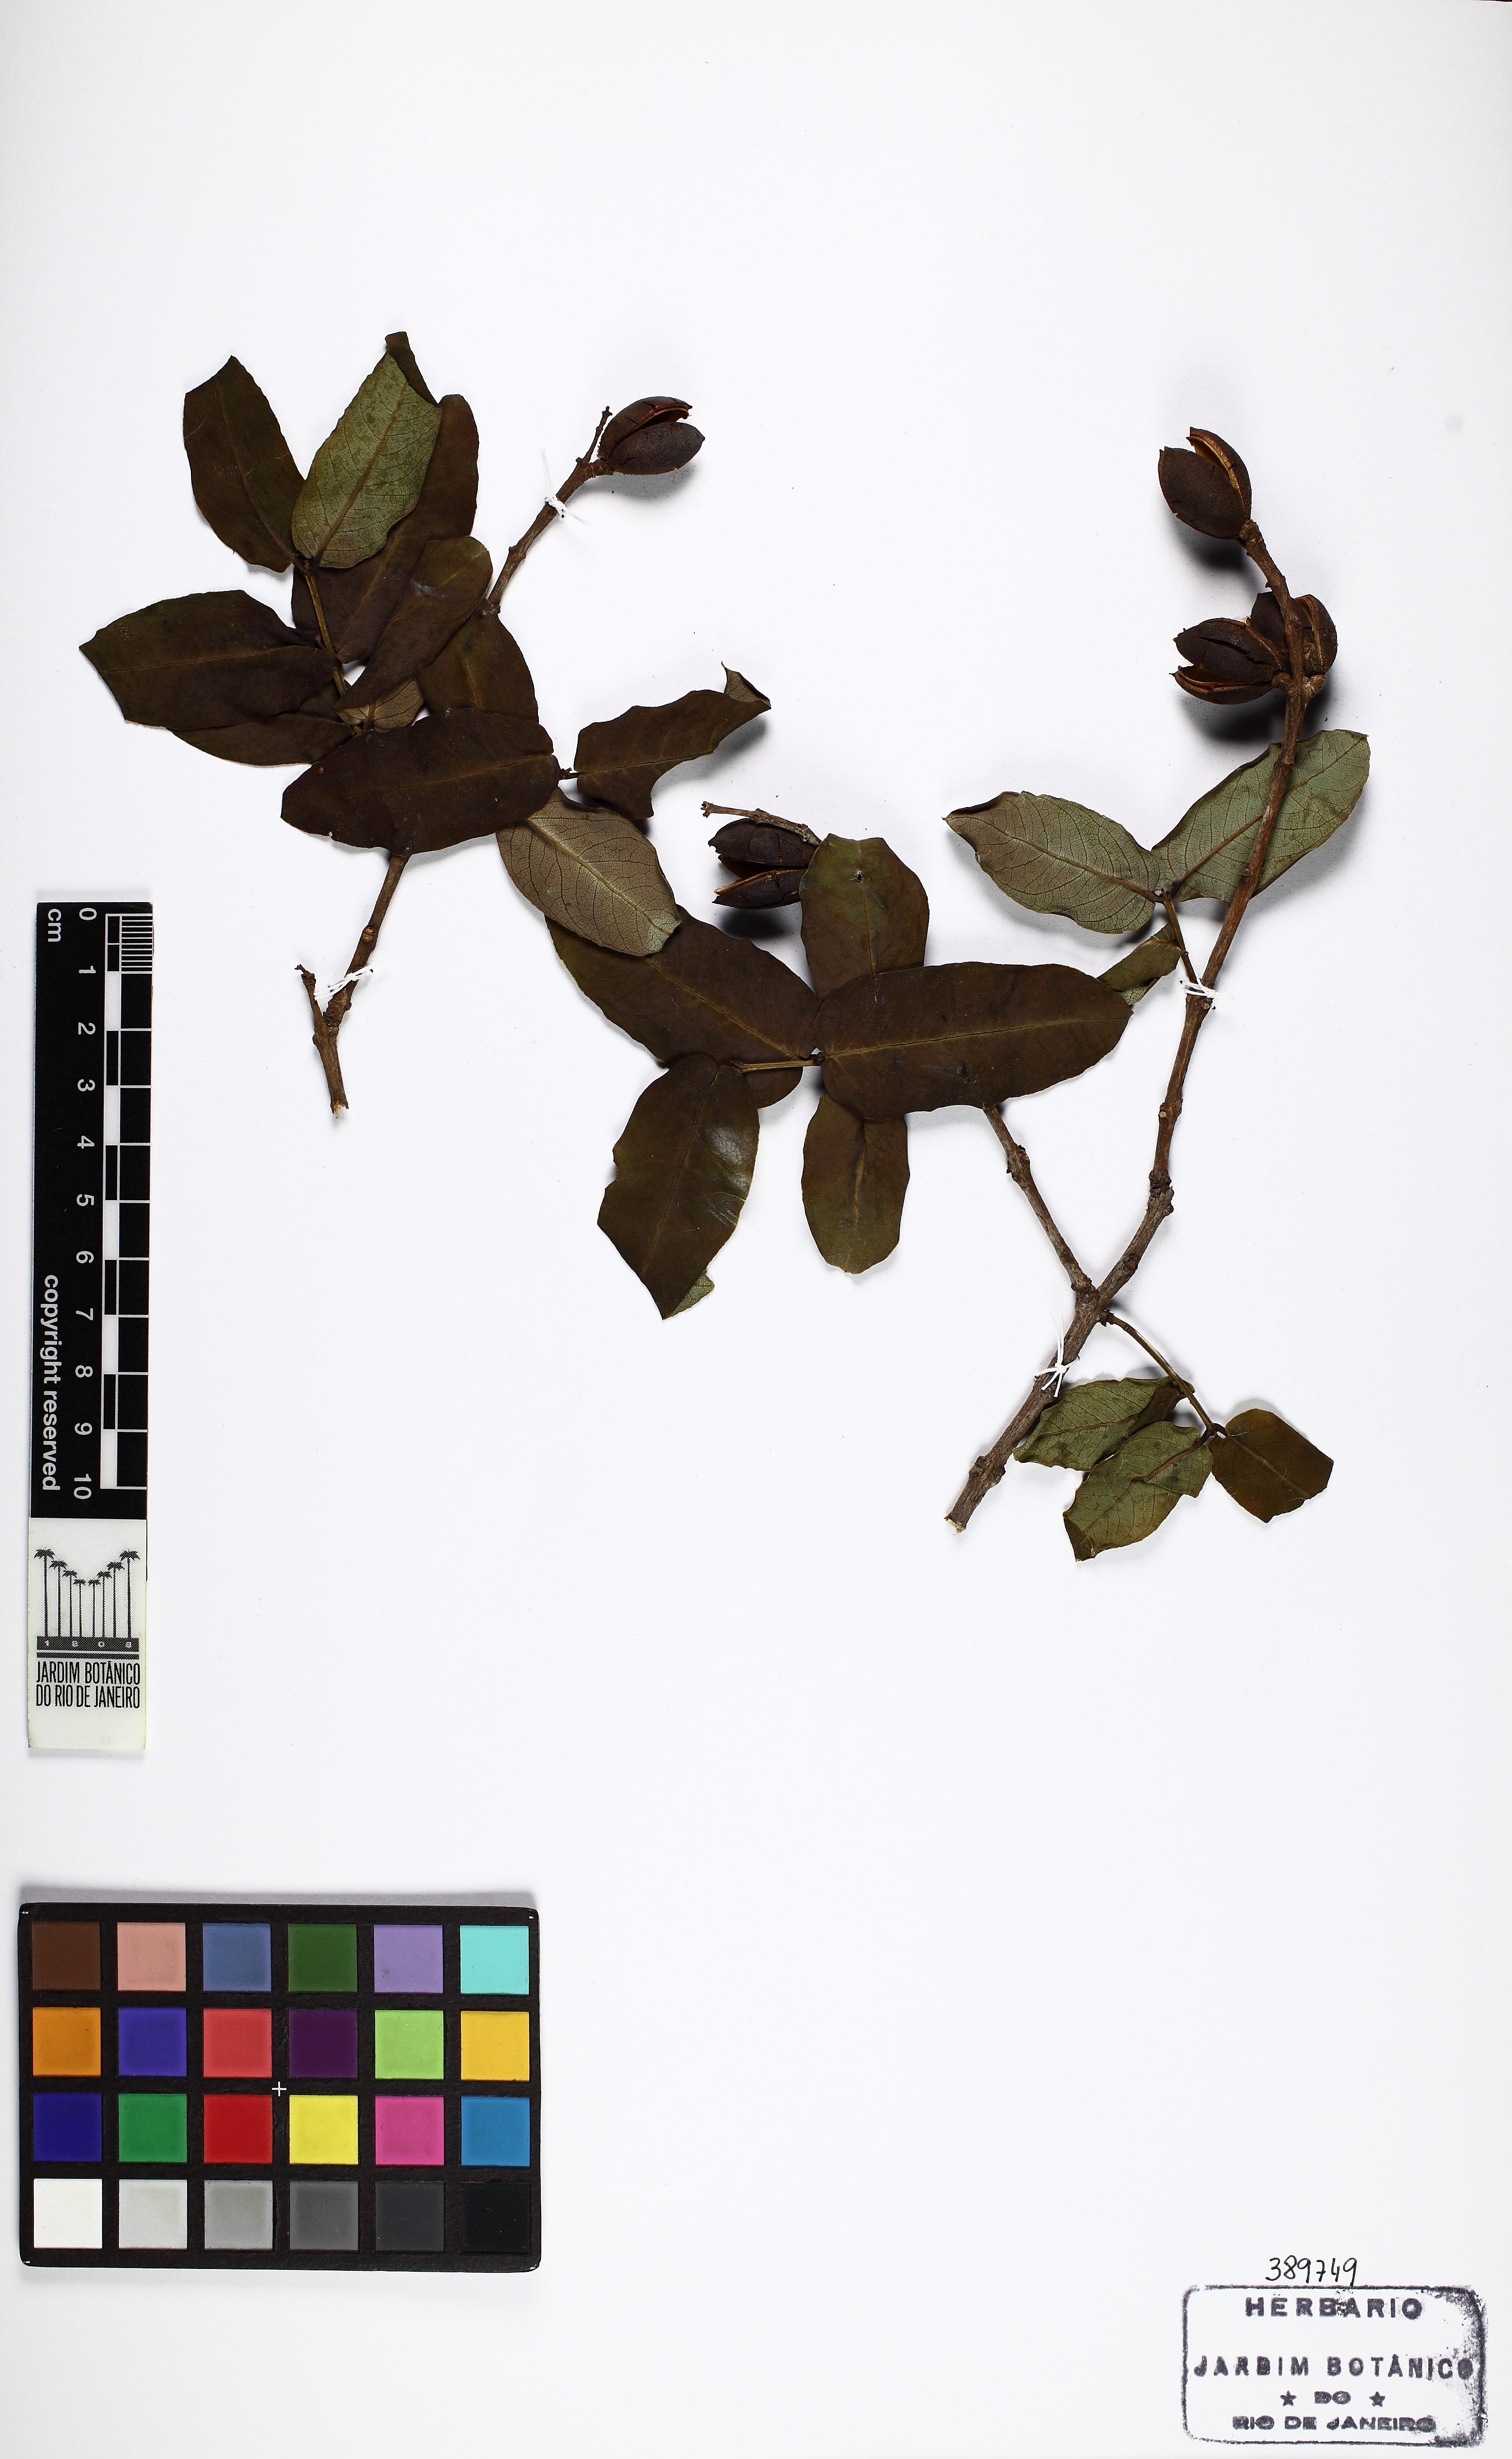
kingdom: Plantae
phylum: Tracheophyta
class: Magnoliopsida
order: Myrtales
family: Vochysiaceae
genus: Qualea
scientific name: Qualea cordata
